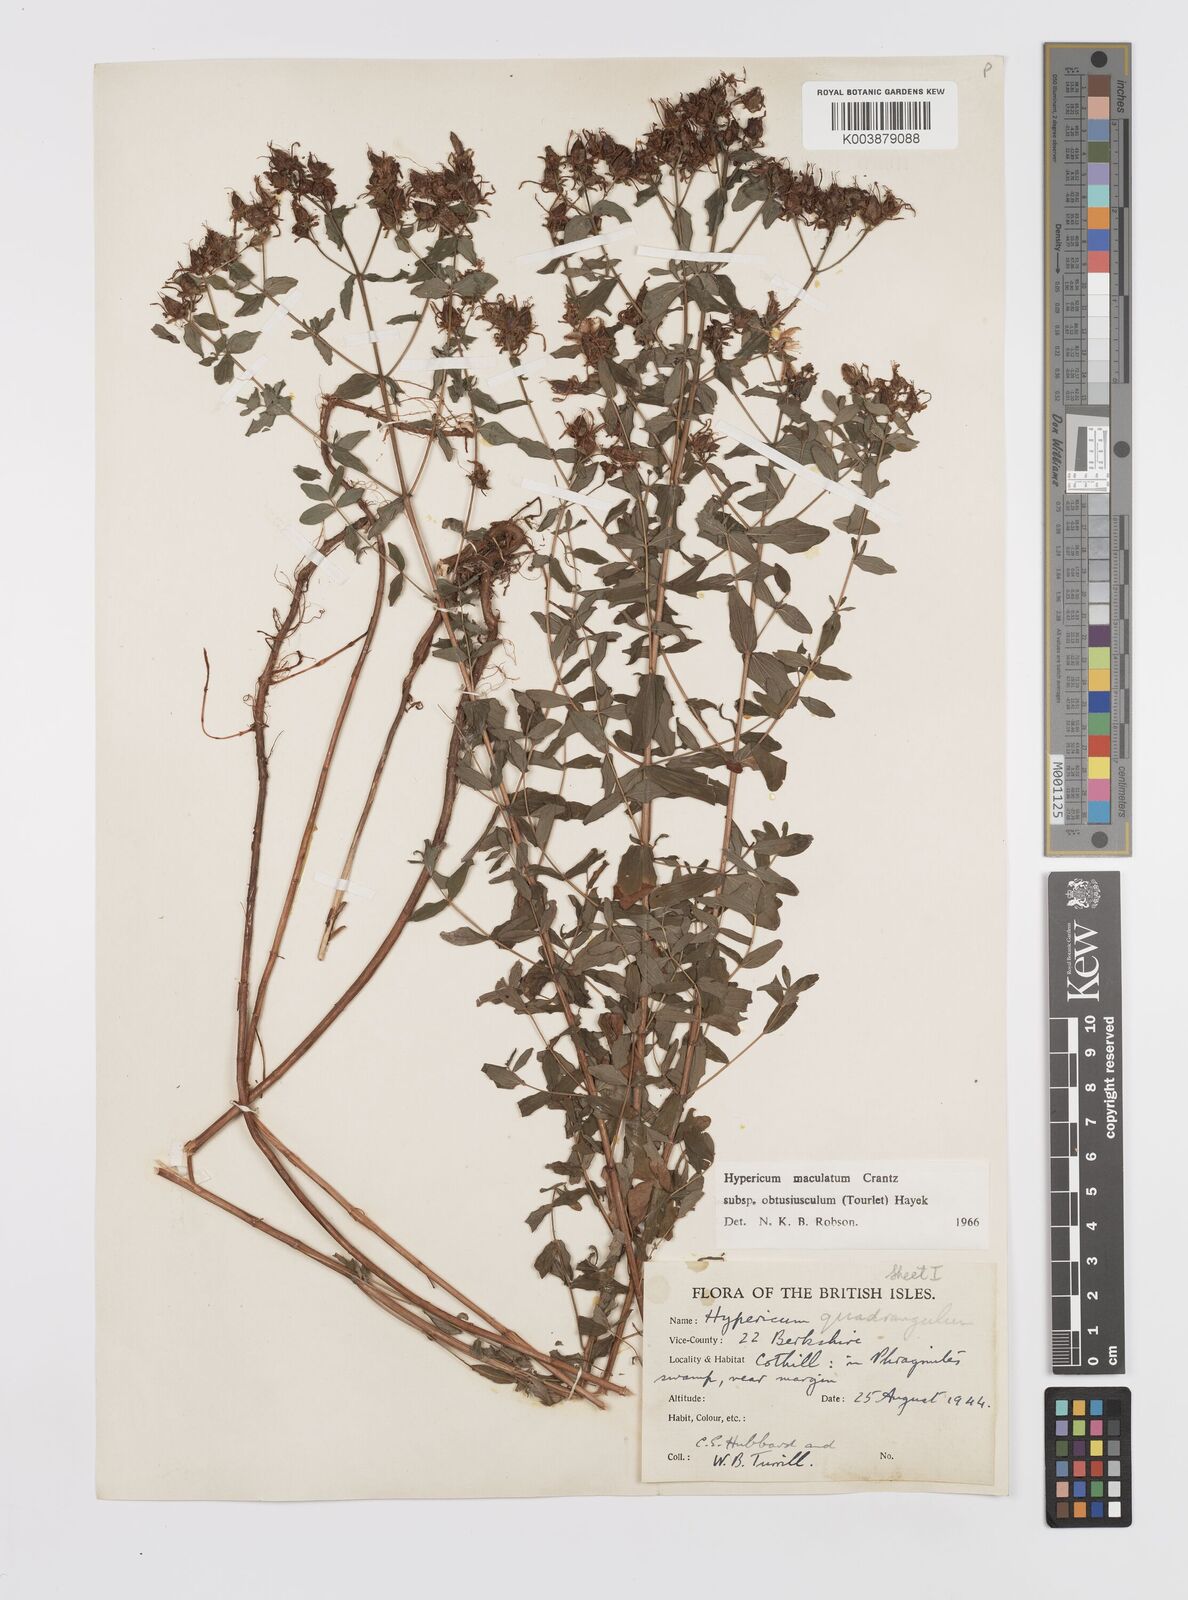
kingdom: Plantae
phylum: Tracheophyta
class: Magnoliopsida
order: Malpighiales
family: Hypericaceae
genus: Hypericum
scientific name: Hypericum dubium
